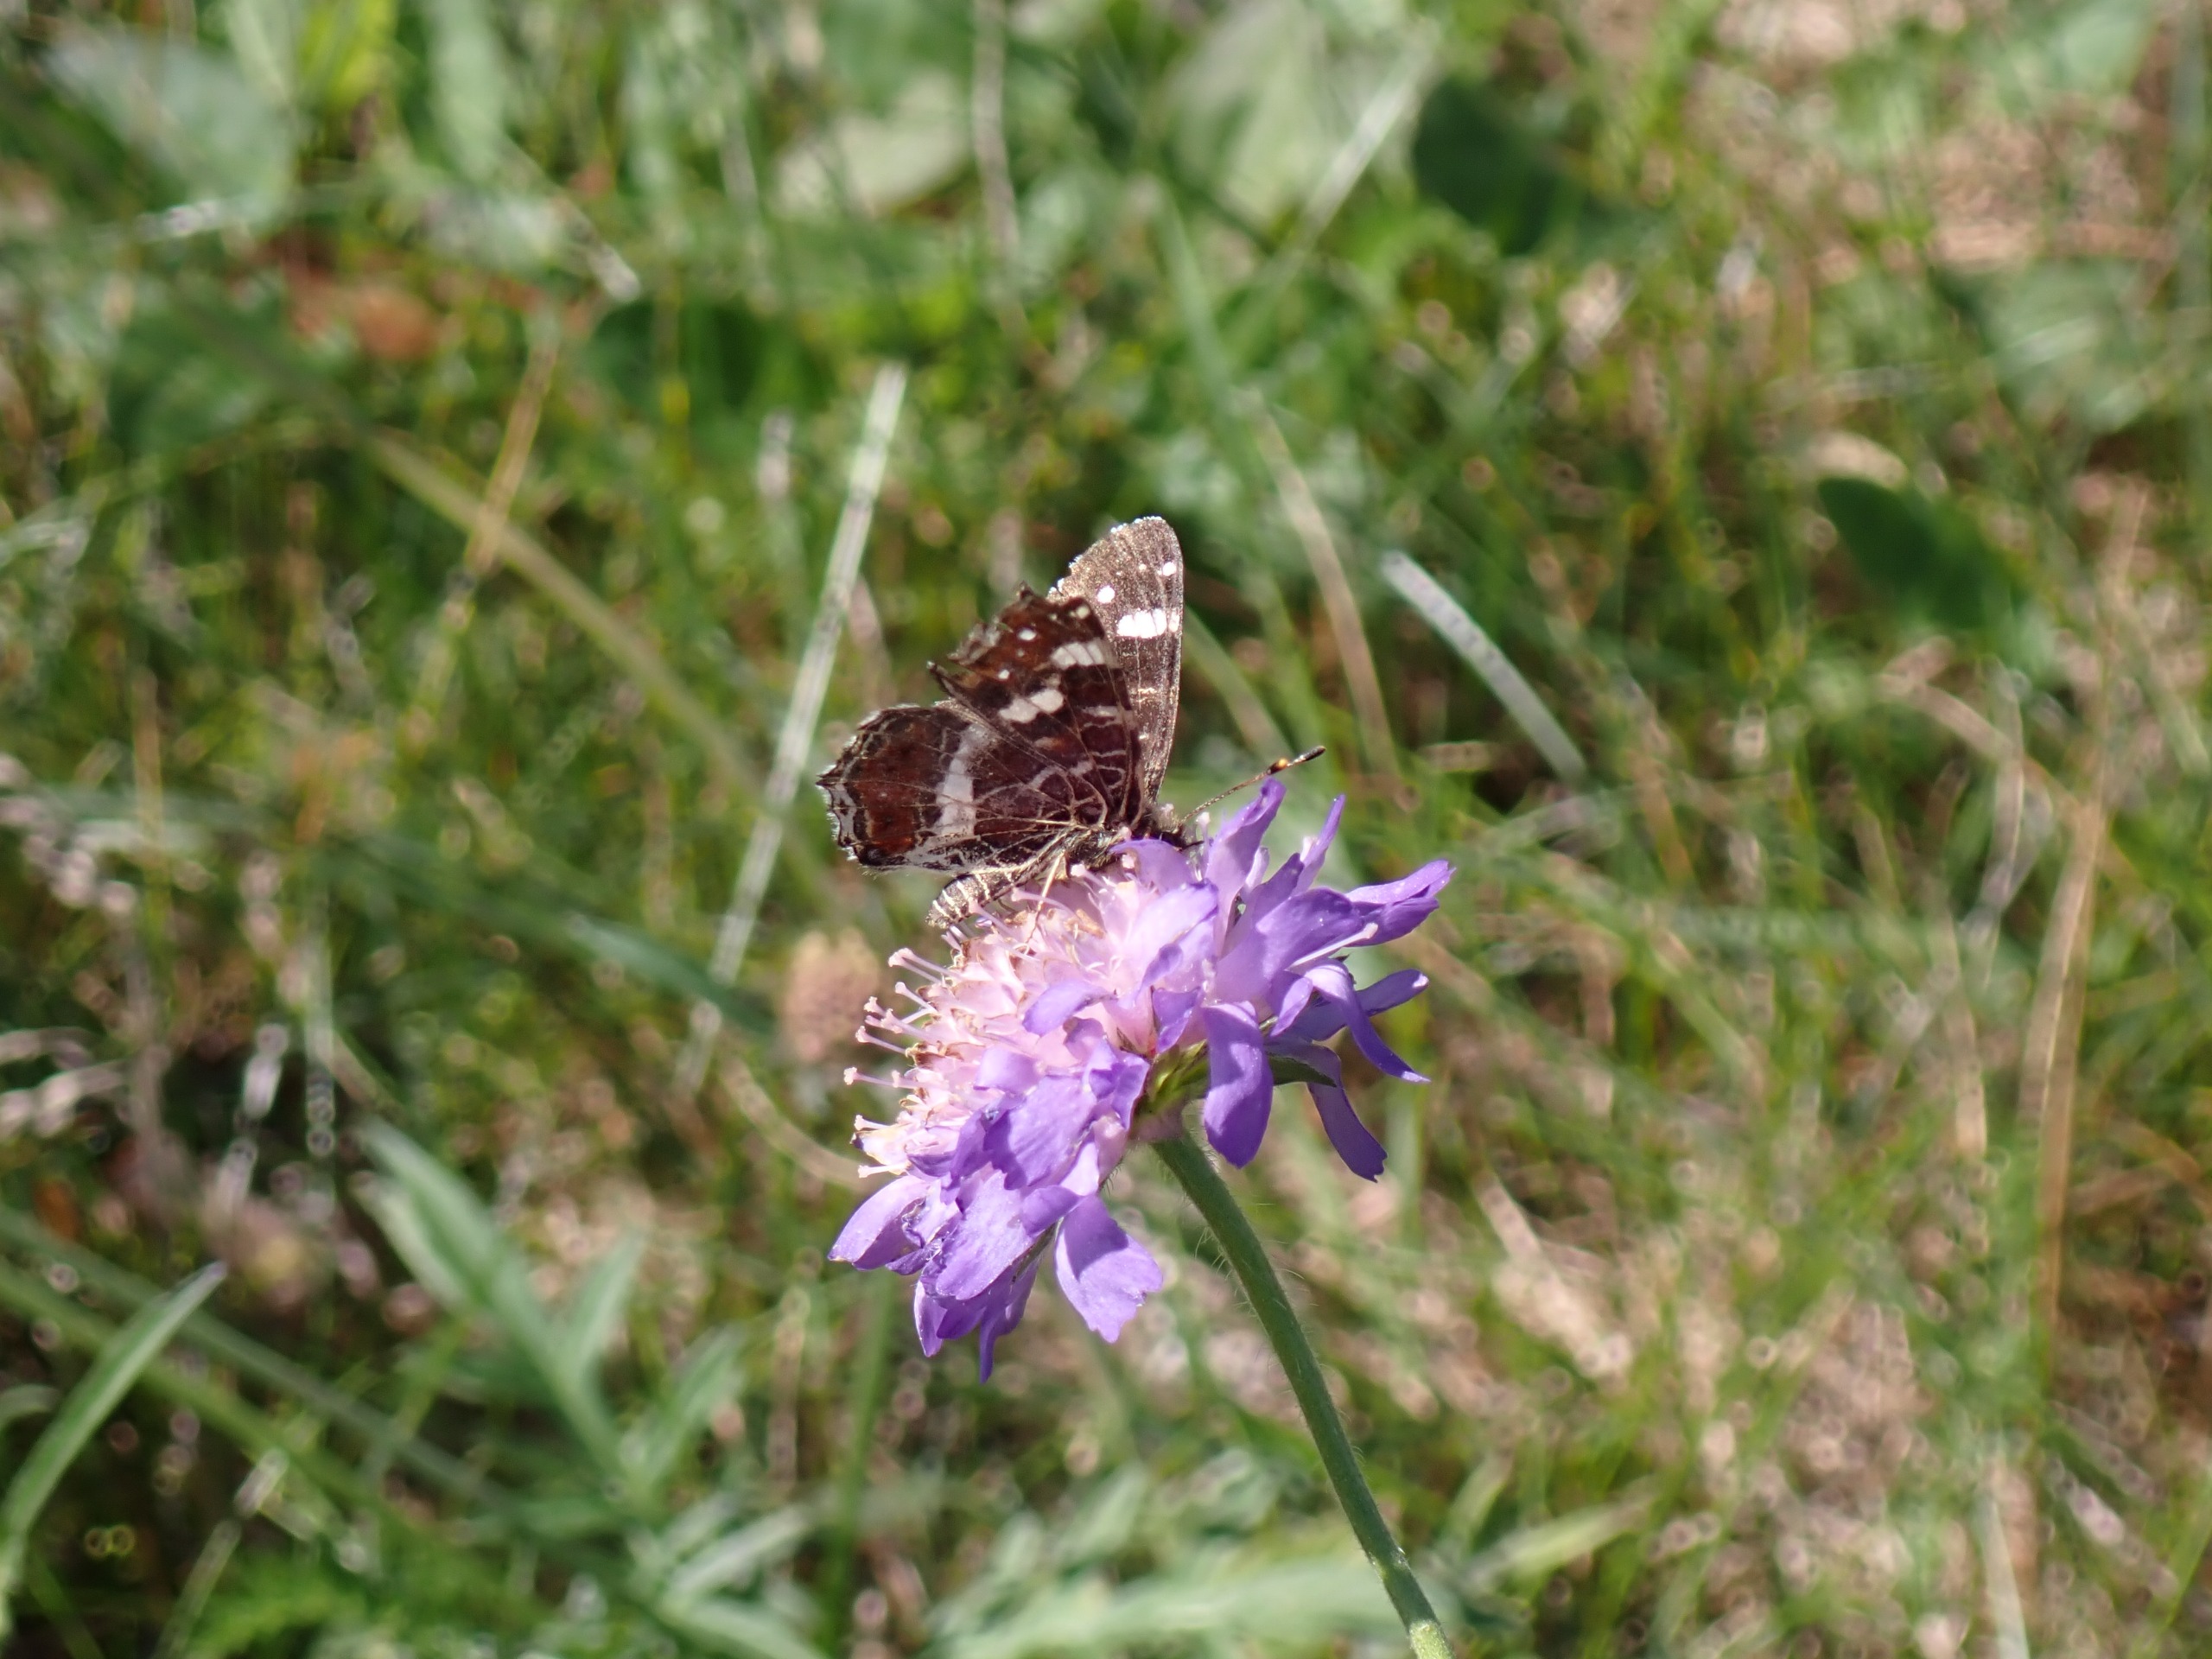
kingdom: Animalia
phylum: Arthropoda
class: Insecta
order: Lepidoptera
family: Nymphalidae
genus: Araschnia
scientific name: Araschnia levana
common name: Nældesommerfugl
